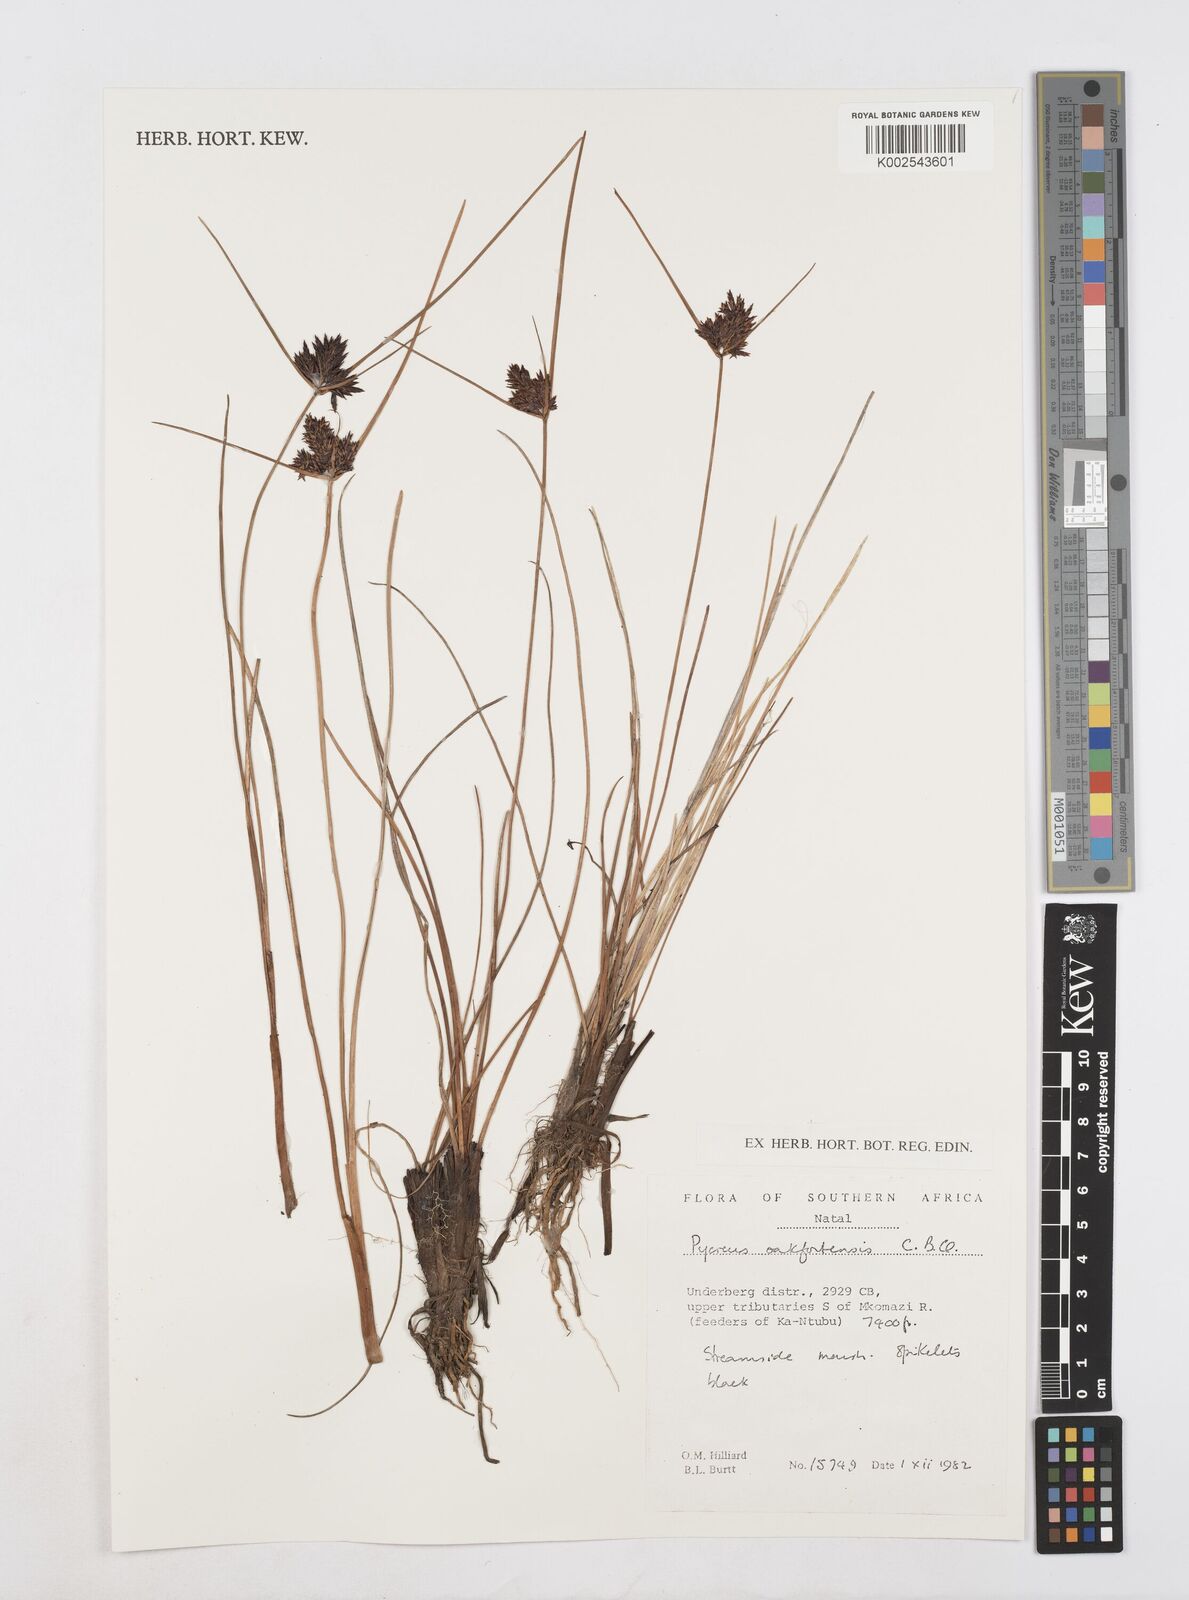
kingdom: Plantae
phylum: Tracheophyta
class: Liliopsida
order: Poales
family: Cyperaceae
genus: Cyperus
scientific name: Cyperus oakfortensis
